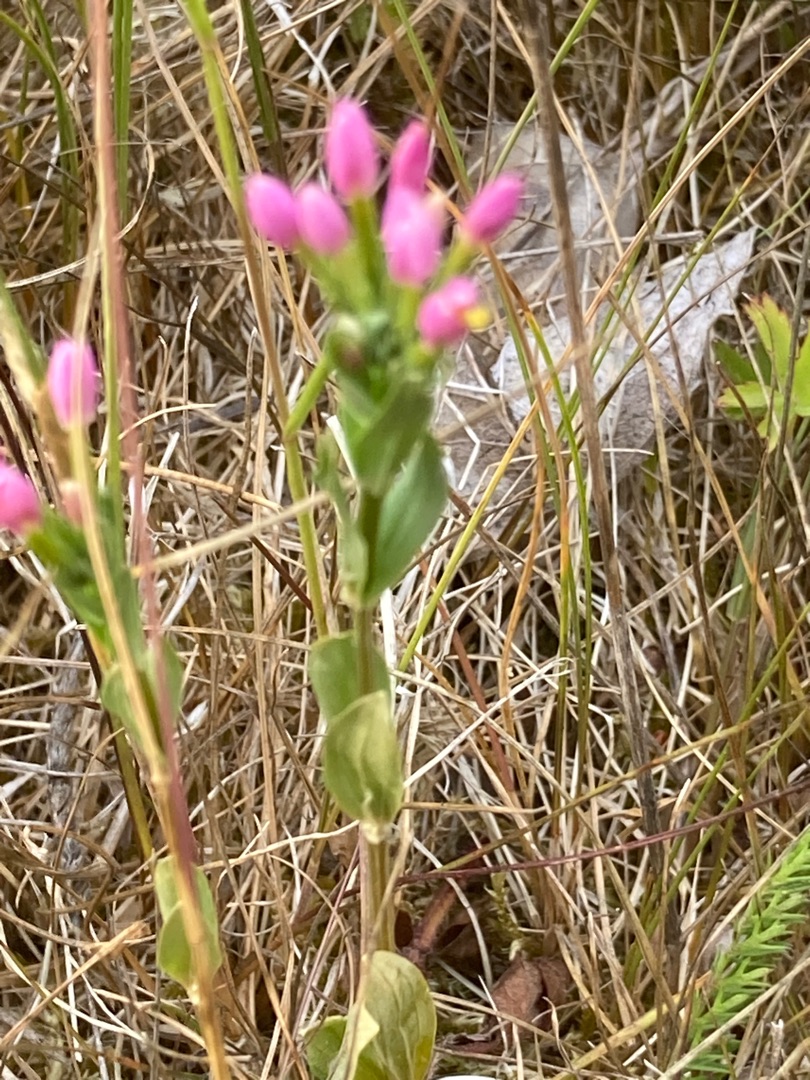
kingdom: Plantae
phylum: Tracheophyta
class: Magnoliopsida
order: Gentianales
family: Gentianaceae
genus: Centaurium
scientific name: Centaurium erythraea
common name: Mark-tusindgylden
